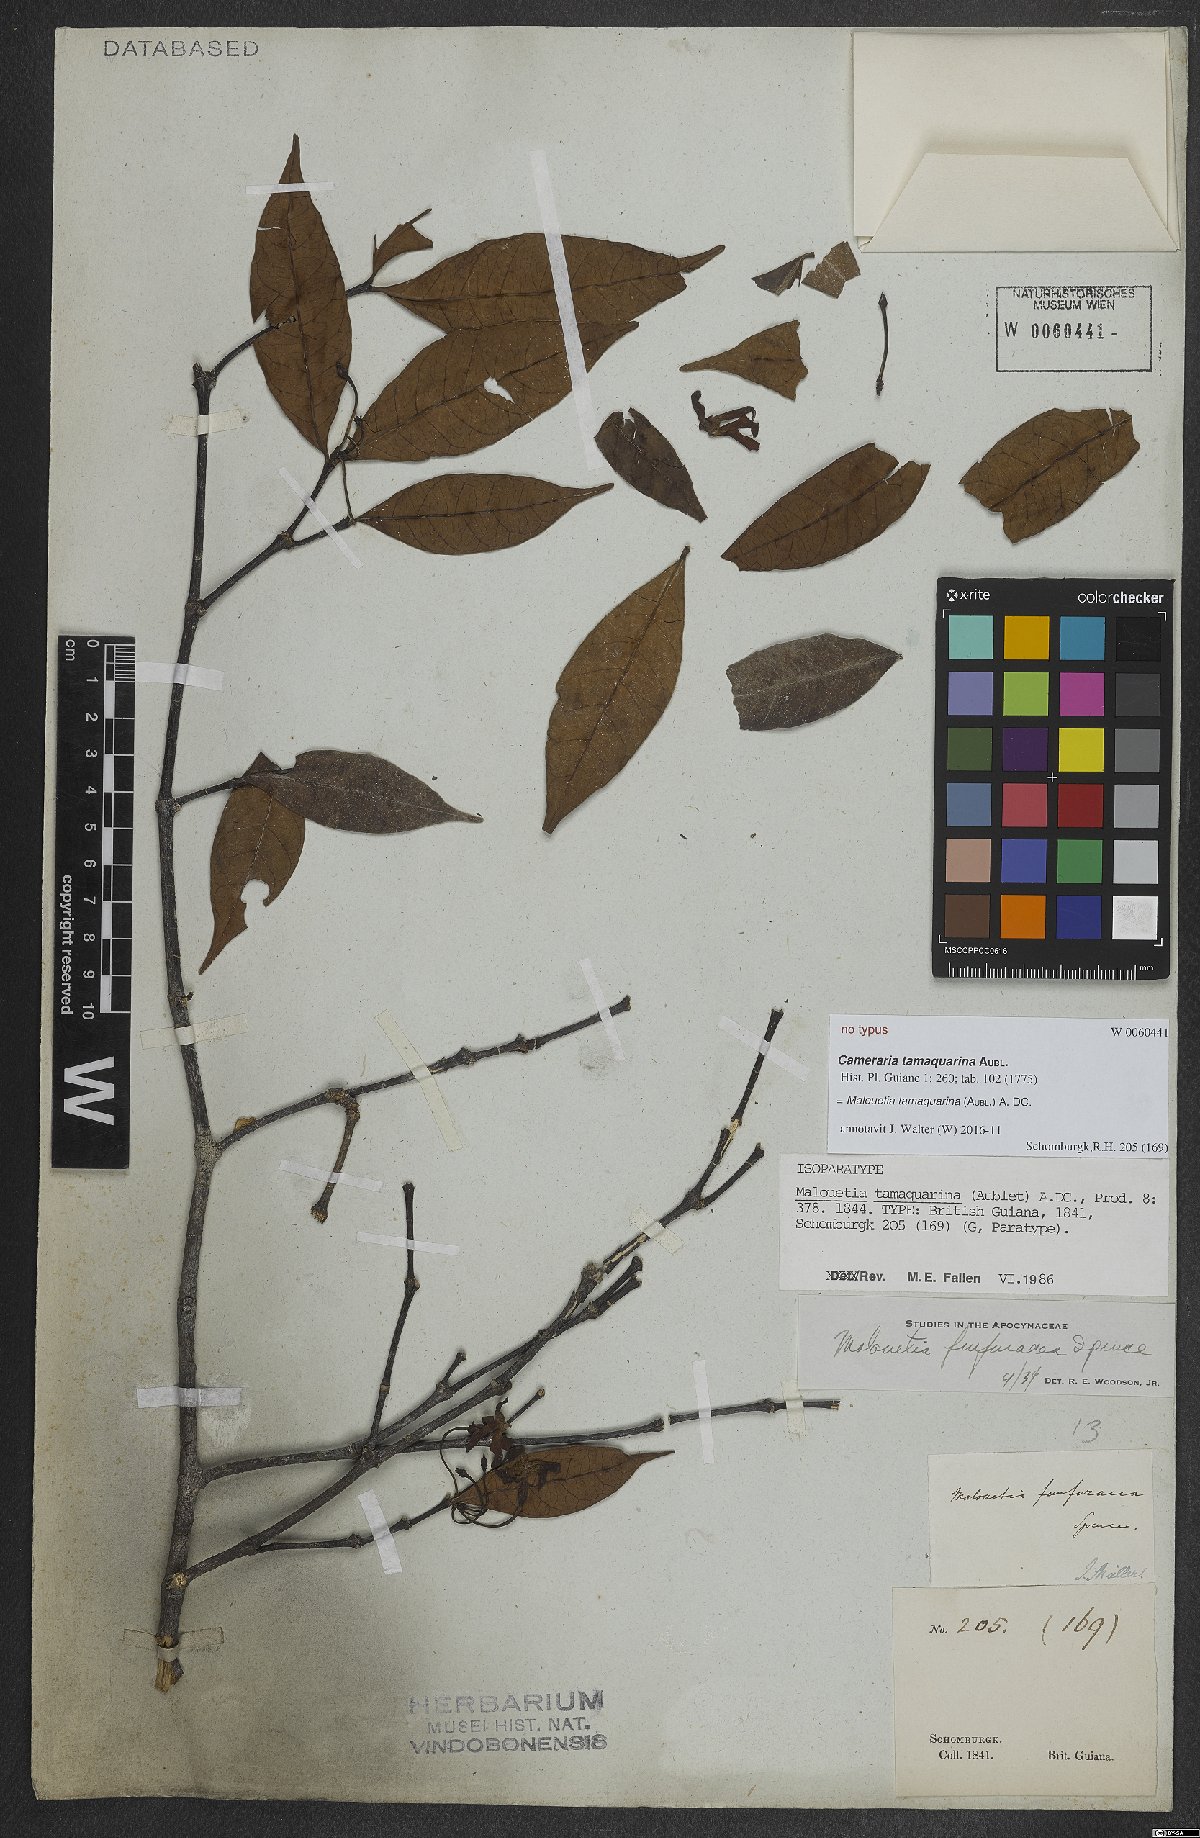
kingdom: Plantae
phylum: Tracheophyta
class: Magnoliopsida
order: Gentianales
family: Apocynaceae
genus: Malouetia
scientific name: Malouetia tamaquarina
